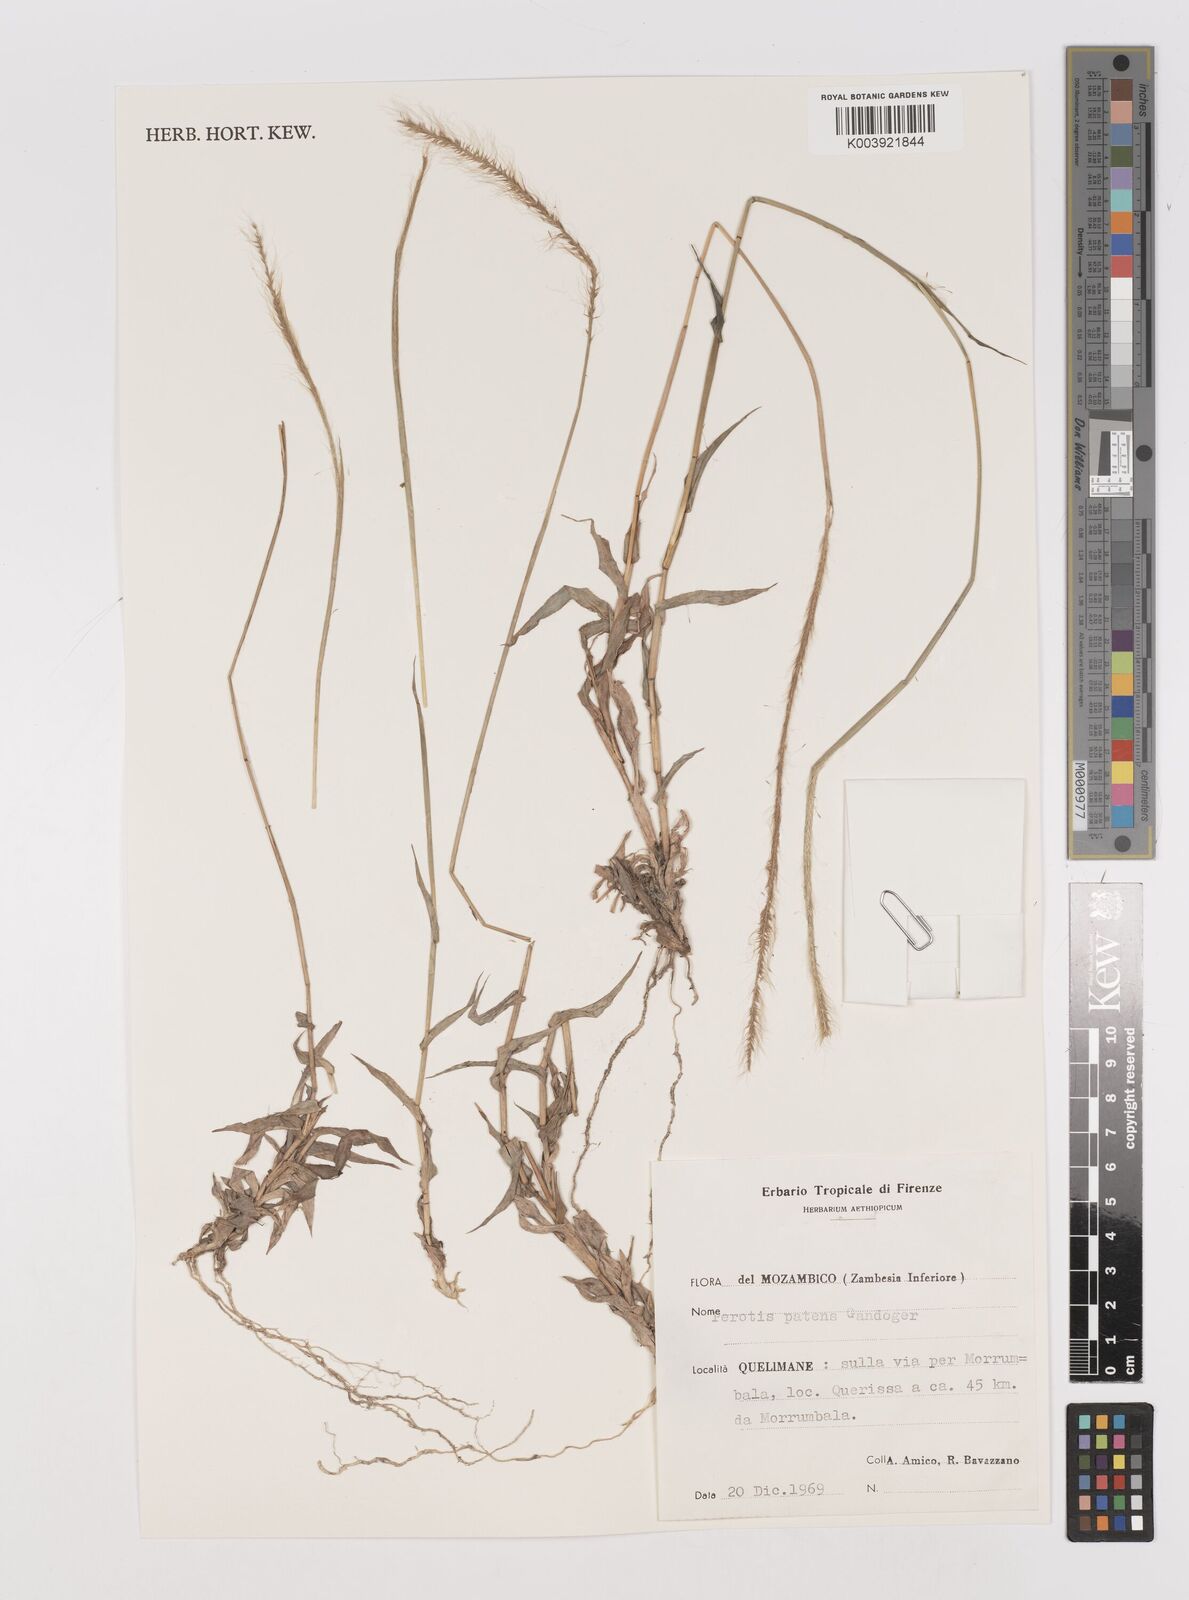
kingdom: Plantae
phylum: Tracheophyta
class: Liliopsida
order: Poales
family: Poaceae
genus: Perotis
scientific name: Perotis patens
